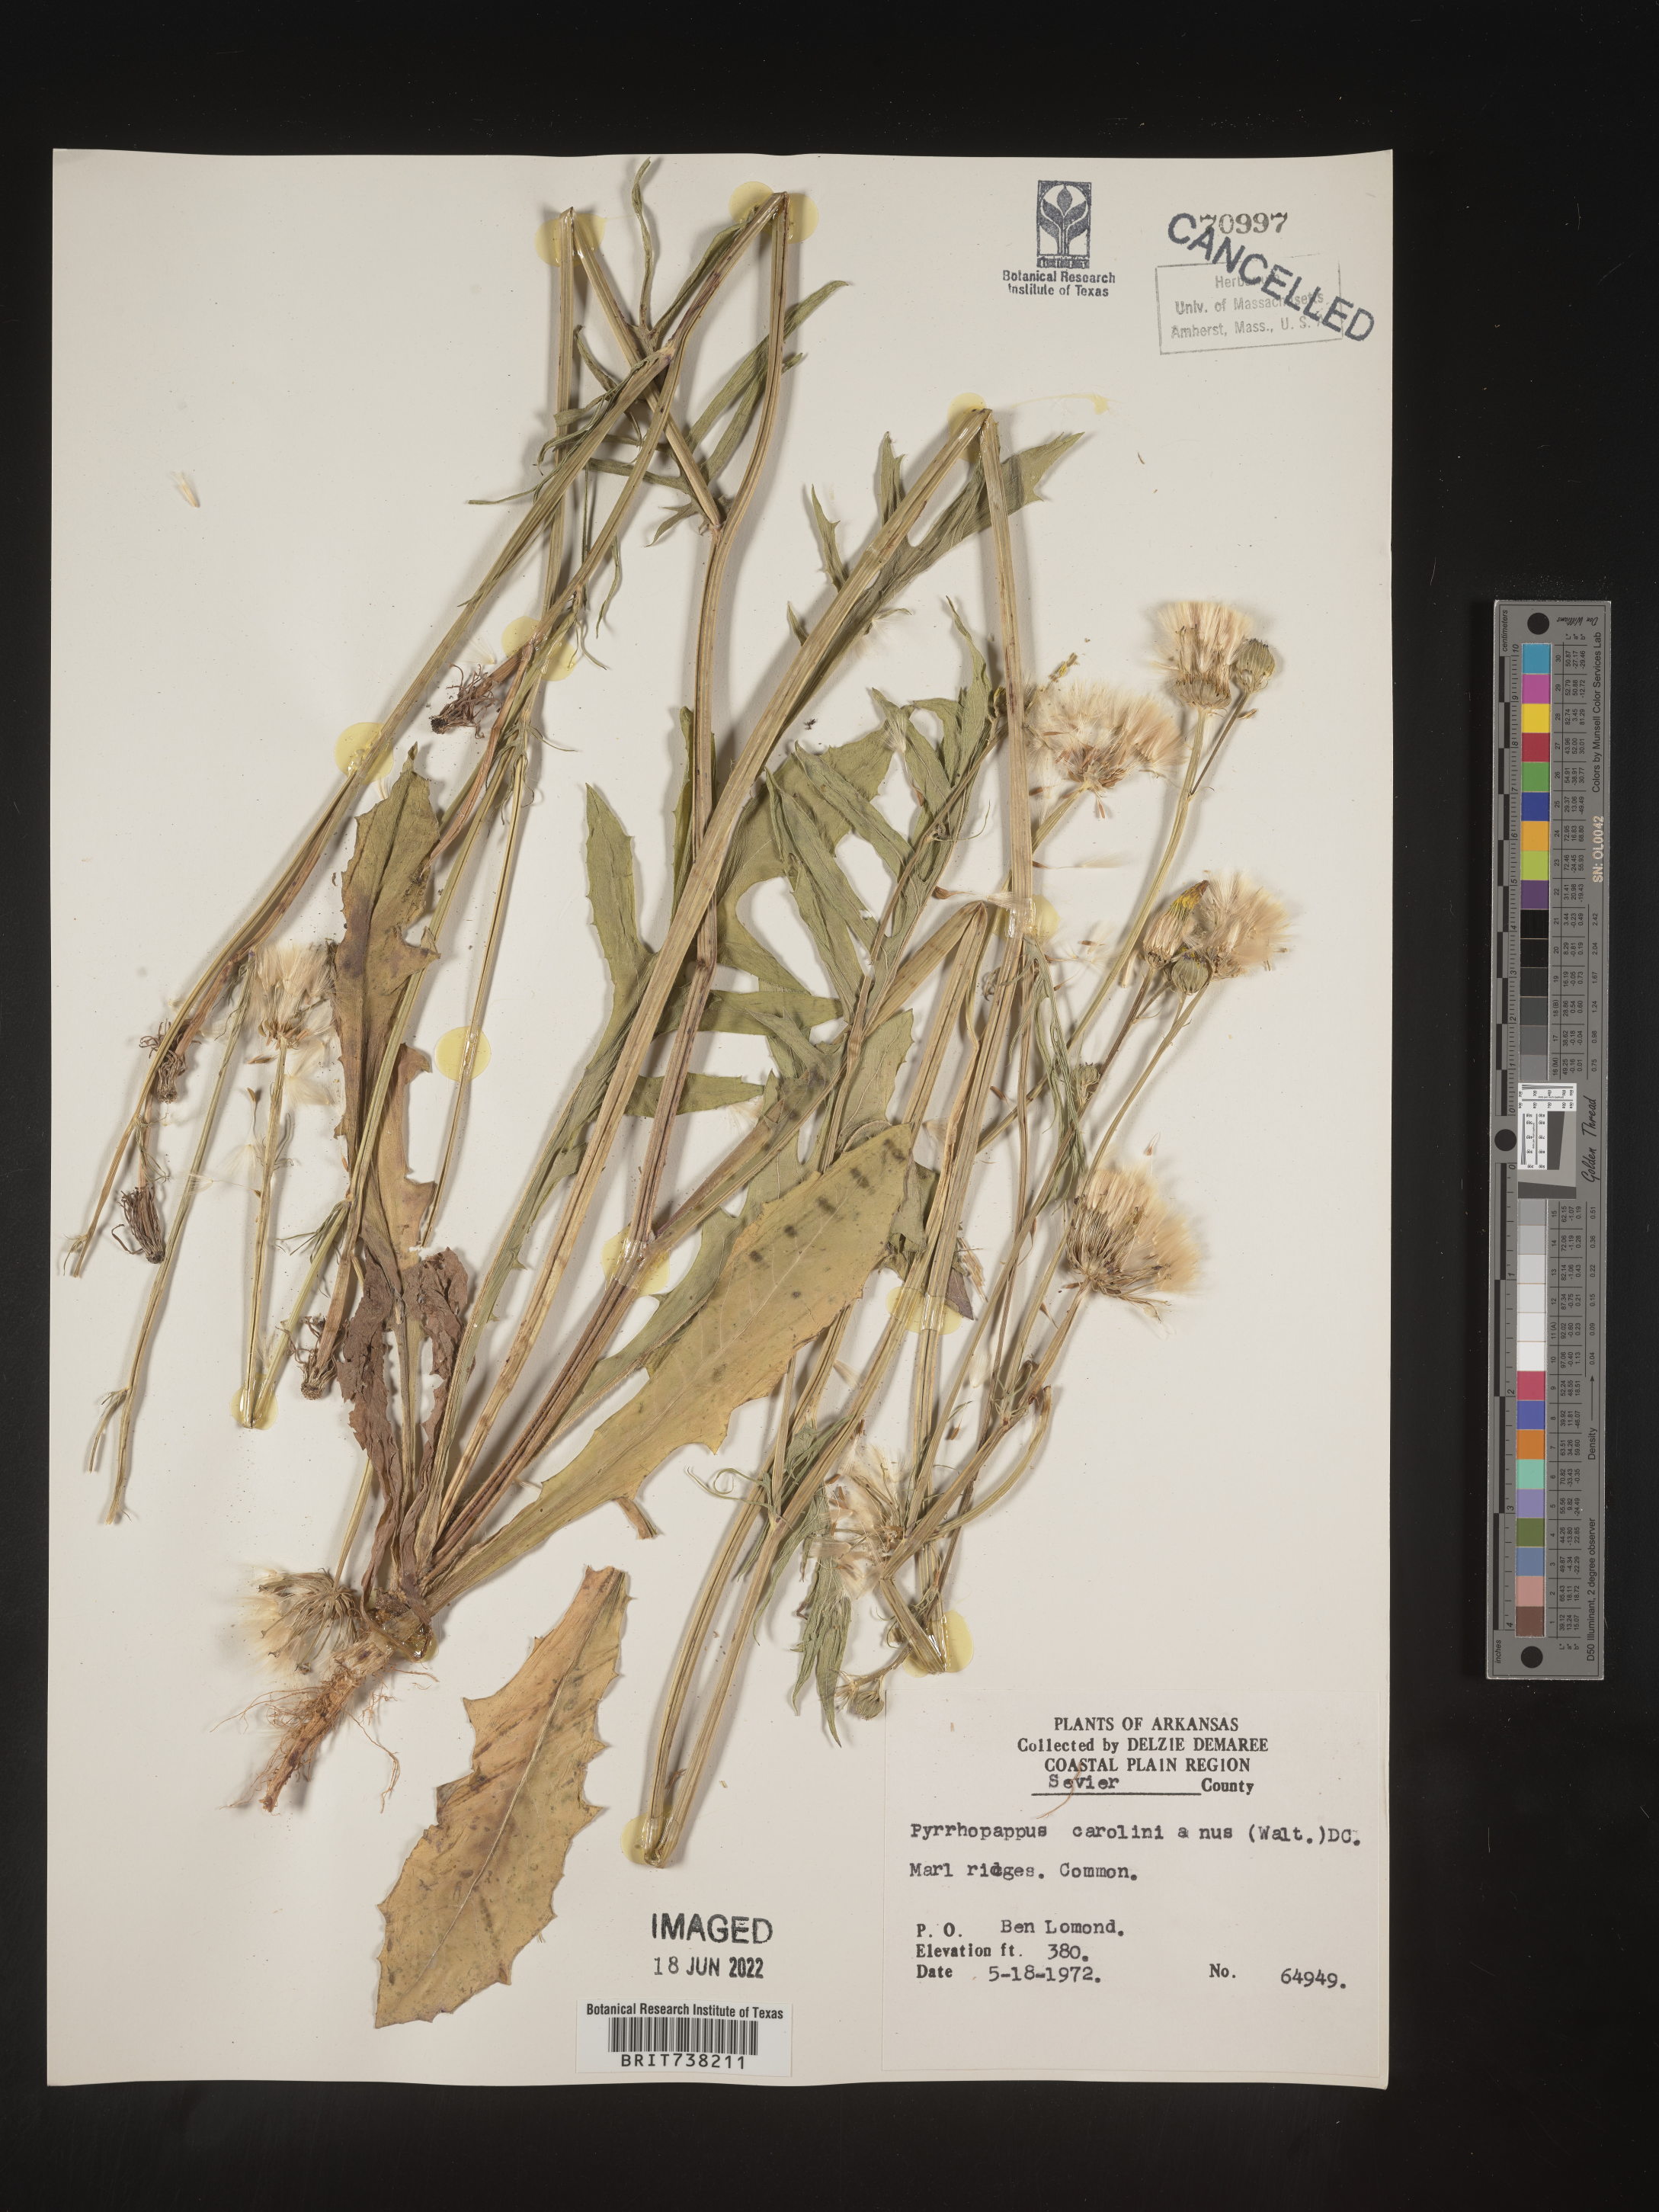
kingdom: Plantae
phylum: Tracheophyta
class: Magnoliopsida
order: Asterales
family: Asteraceae
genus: Pyrrhopappus
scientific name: Pyrrhopappus carolinianus
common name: Carolina desert-chicory
